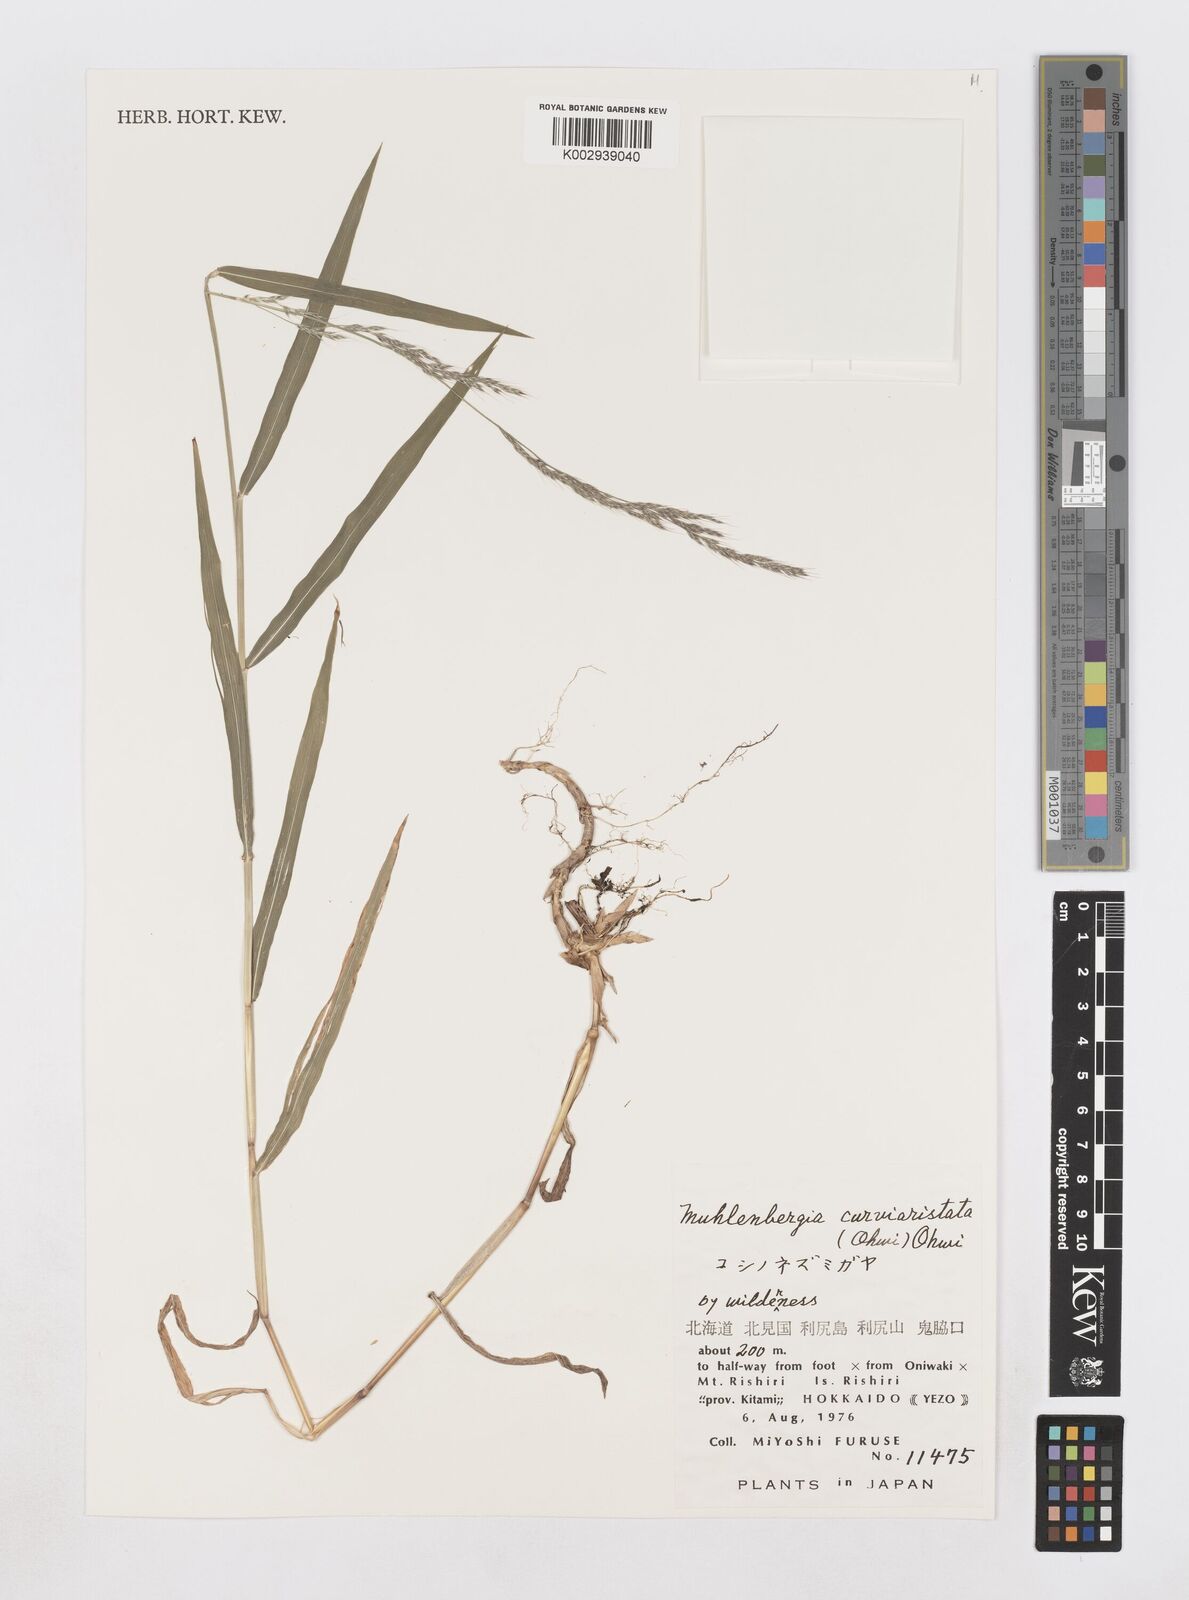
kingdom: Plantae
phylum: Tracheophyta
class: Liliopsida
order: Poales
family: Poaceae
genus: Muhlenbergia
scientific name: Muhlenbergia curviaristata
